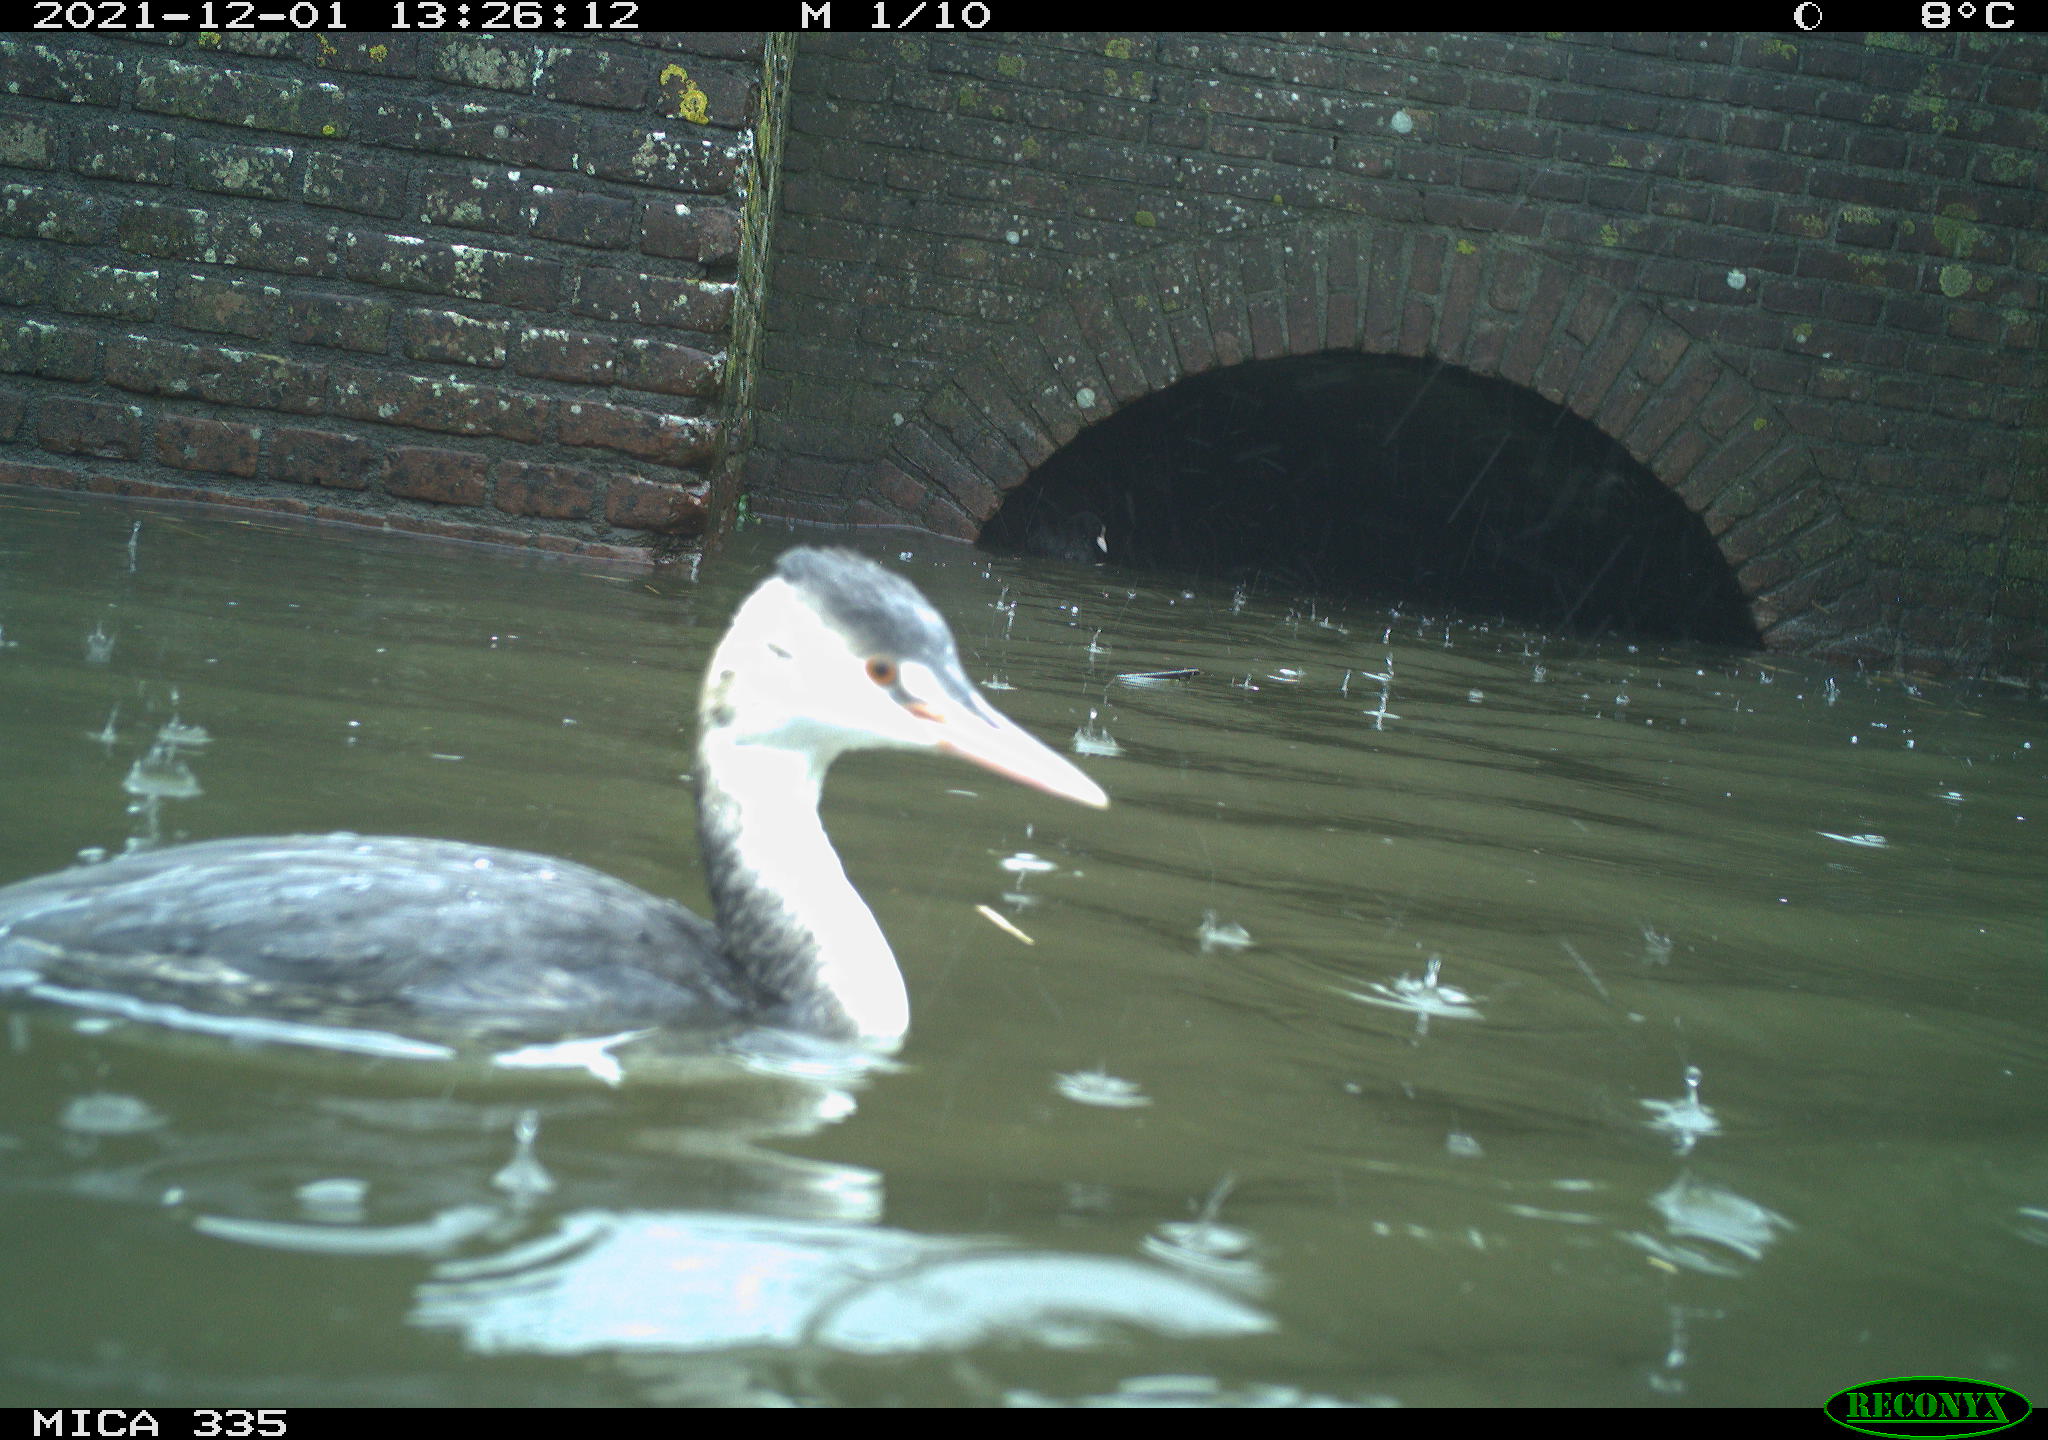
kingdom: Animalia
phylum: Chordata
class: Aves
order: Podicipediformes
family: Podicipedidae
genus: Podiceps
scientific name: Podiceps cristatus
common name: Great crested grebe
